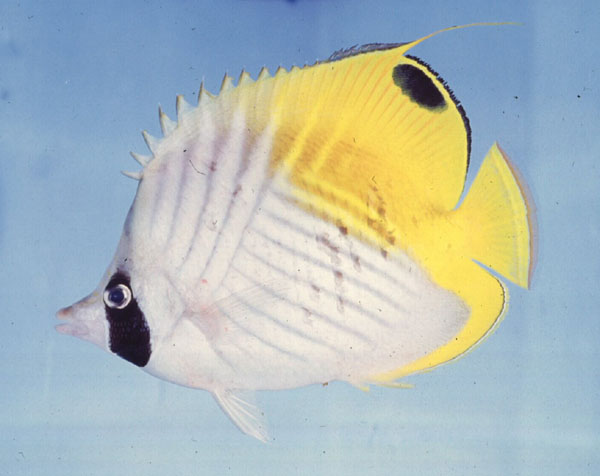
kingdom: Animalia
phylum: Chordata
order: Perciformes
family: Chaetodontidae
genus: Chaetodon
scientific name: Chaetodon auriga
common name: Threadfin butterflyfish
